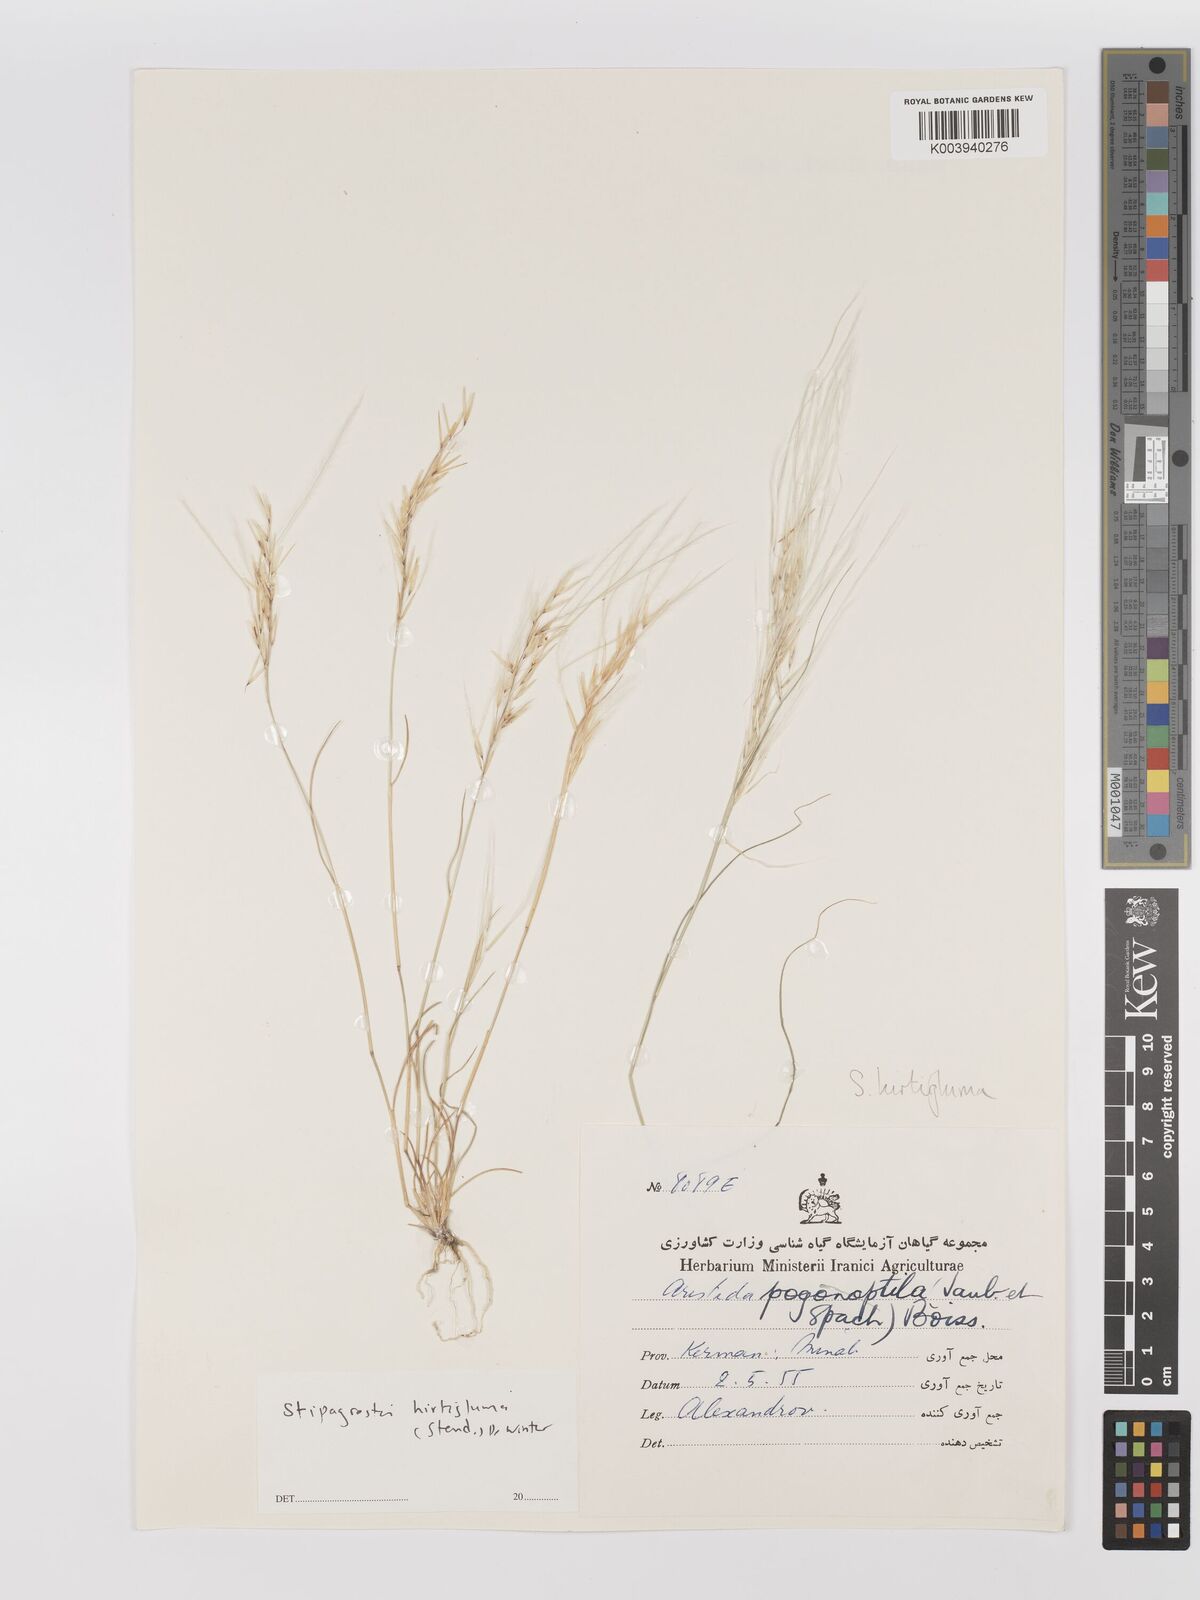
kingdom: Plantae
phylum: Tracheophyta
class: Liliopsida
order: Poales
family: Poaceae
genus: Stipagrostis
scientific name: Stipagrostis hirtigluma
